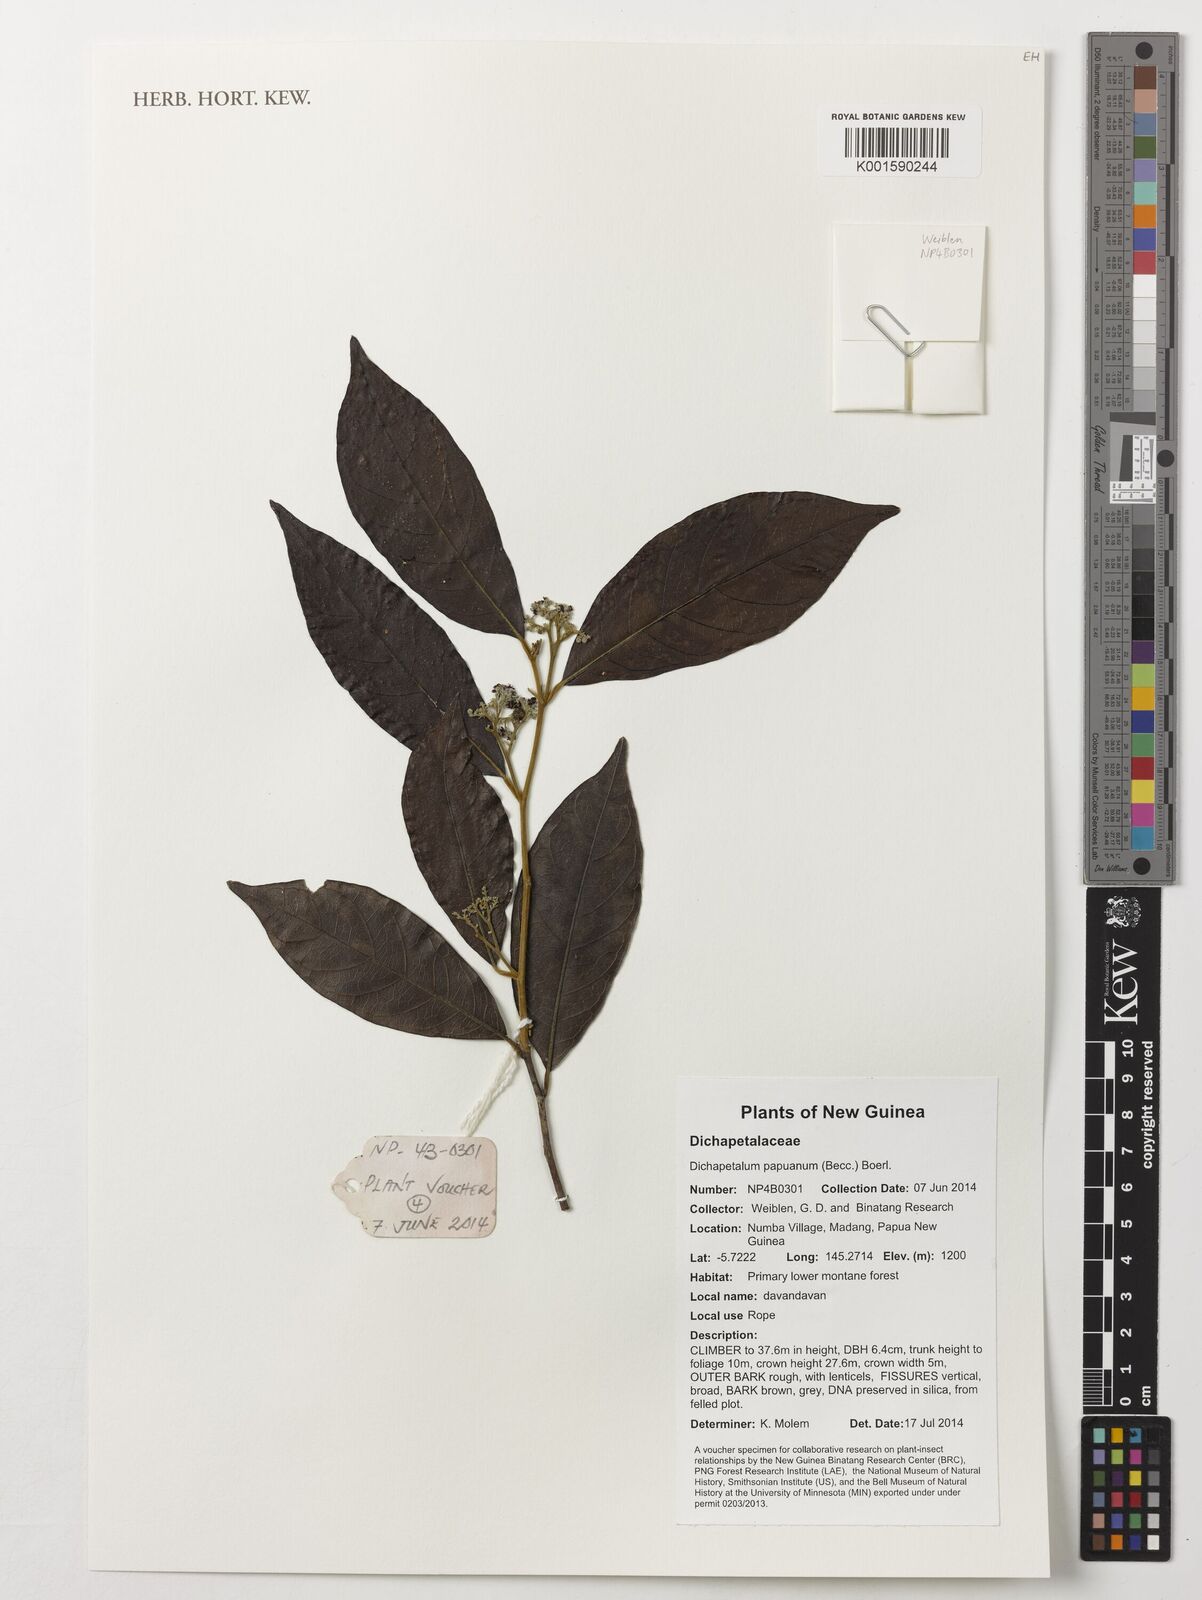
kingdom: Plantae
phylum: Tracheophyta
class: Magnoliopsida
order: Malpighiales
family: Dichapetalaceae
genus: Dichapetalum
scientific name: Dichapetalum papuanum
